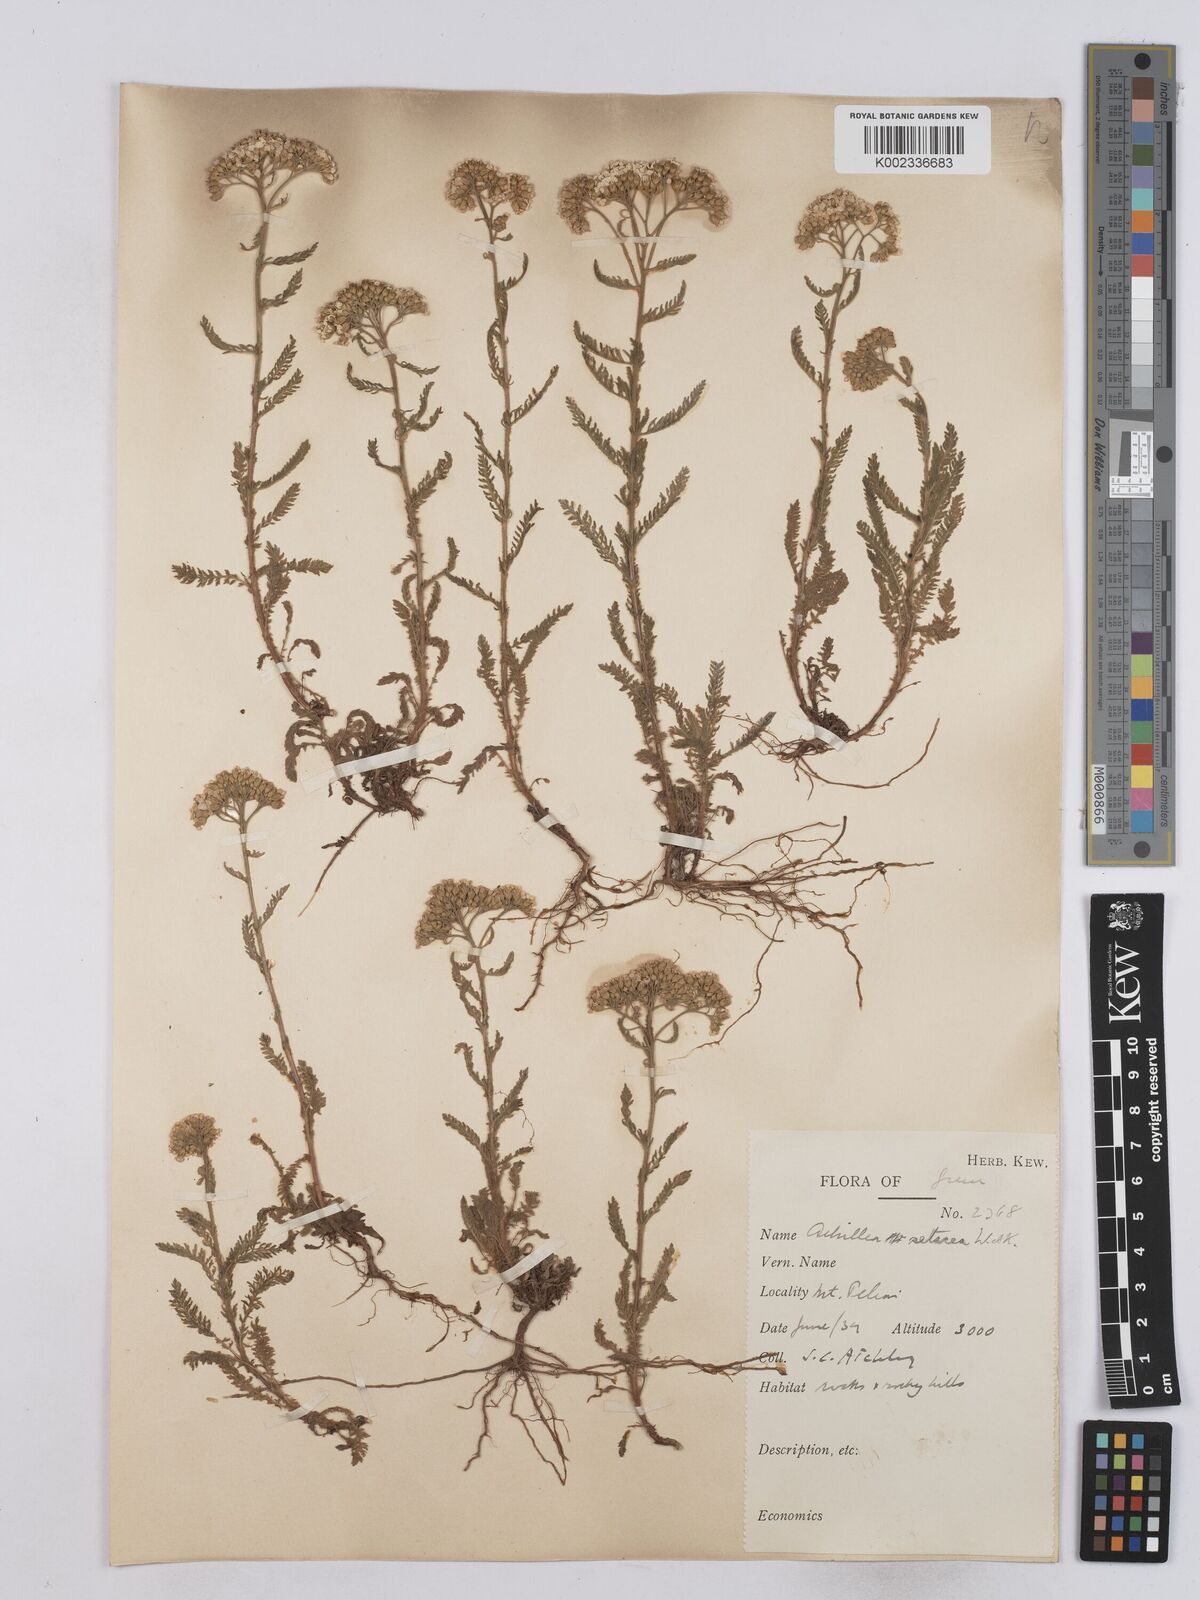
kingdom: Plantae
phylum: Tracheophyta
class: Magnoliopsida
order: Asterales
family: Asteraceae
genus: Achillea
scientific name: Achillea setacea
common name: Bristly yarrow
